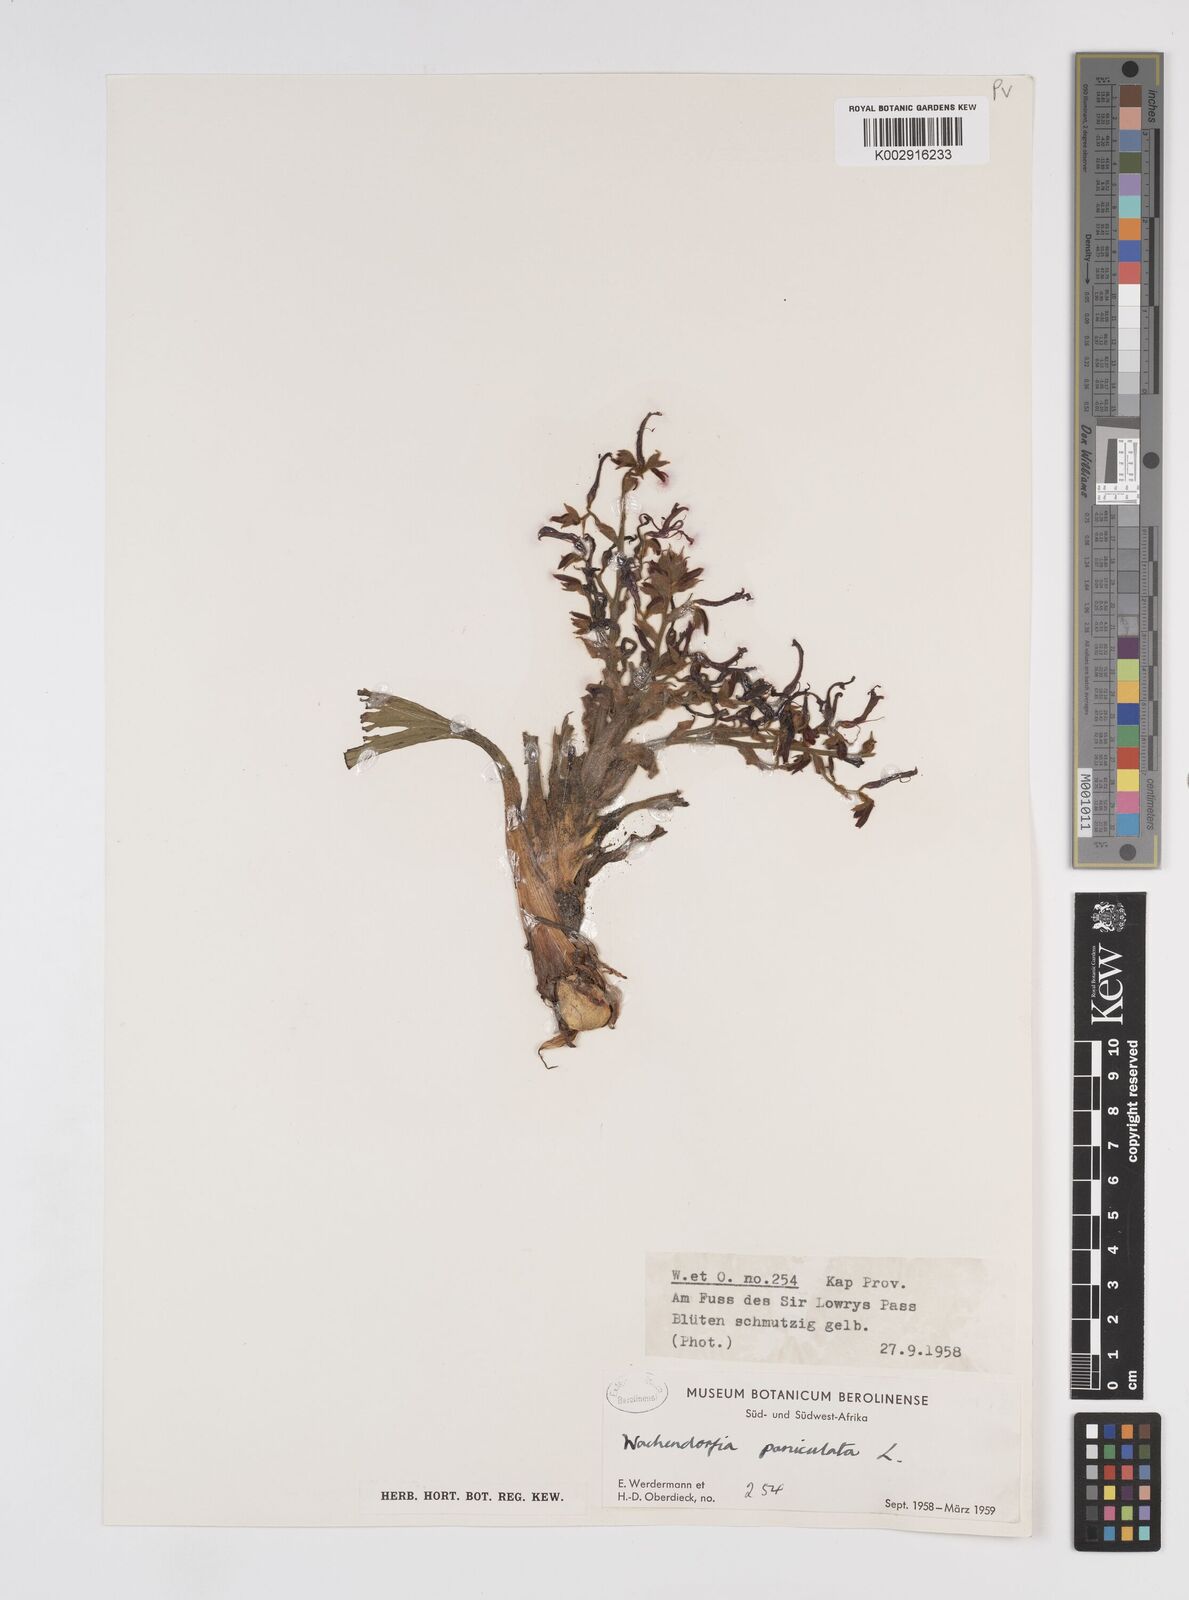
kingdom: Plantae
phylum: Tracheophyta
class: Liliopsida
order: Commelinales
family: Haemodoraceae
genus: Wachendorfia
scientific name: Wachendorfia paniculata
